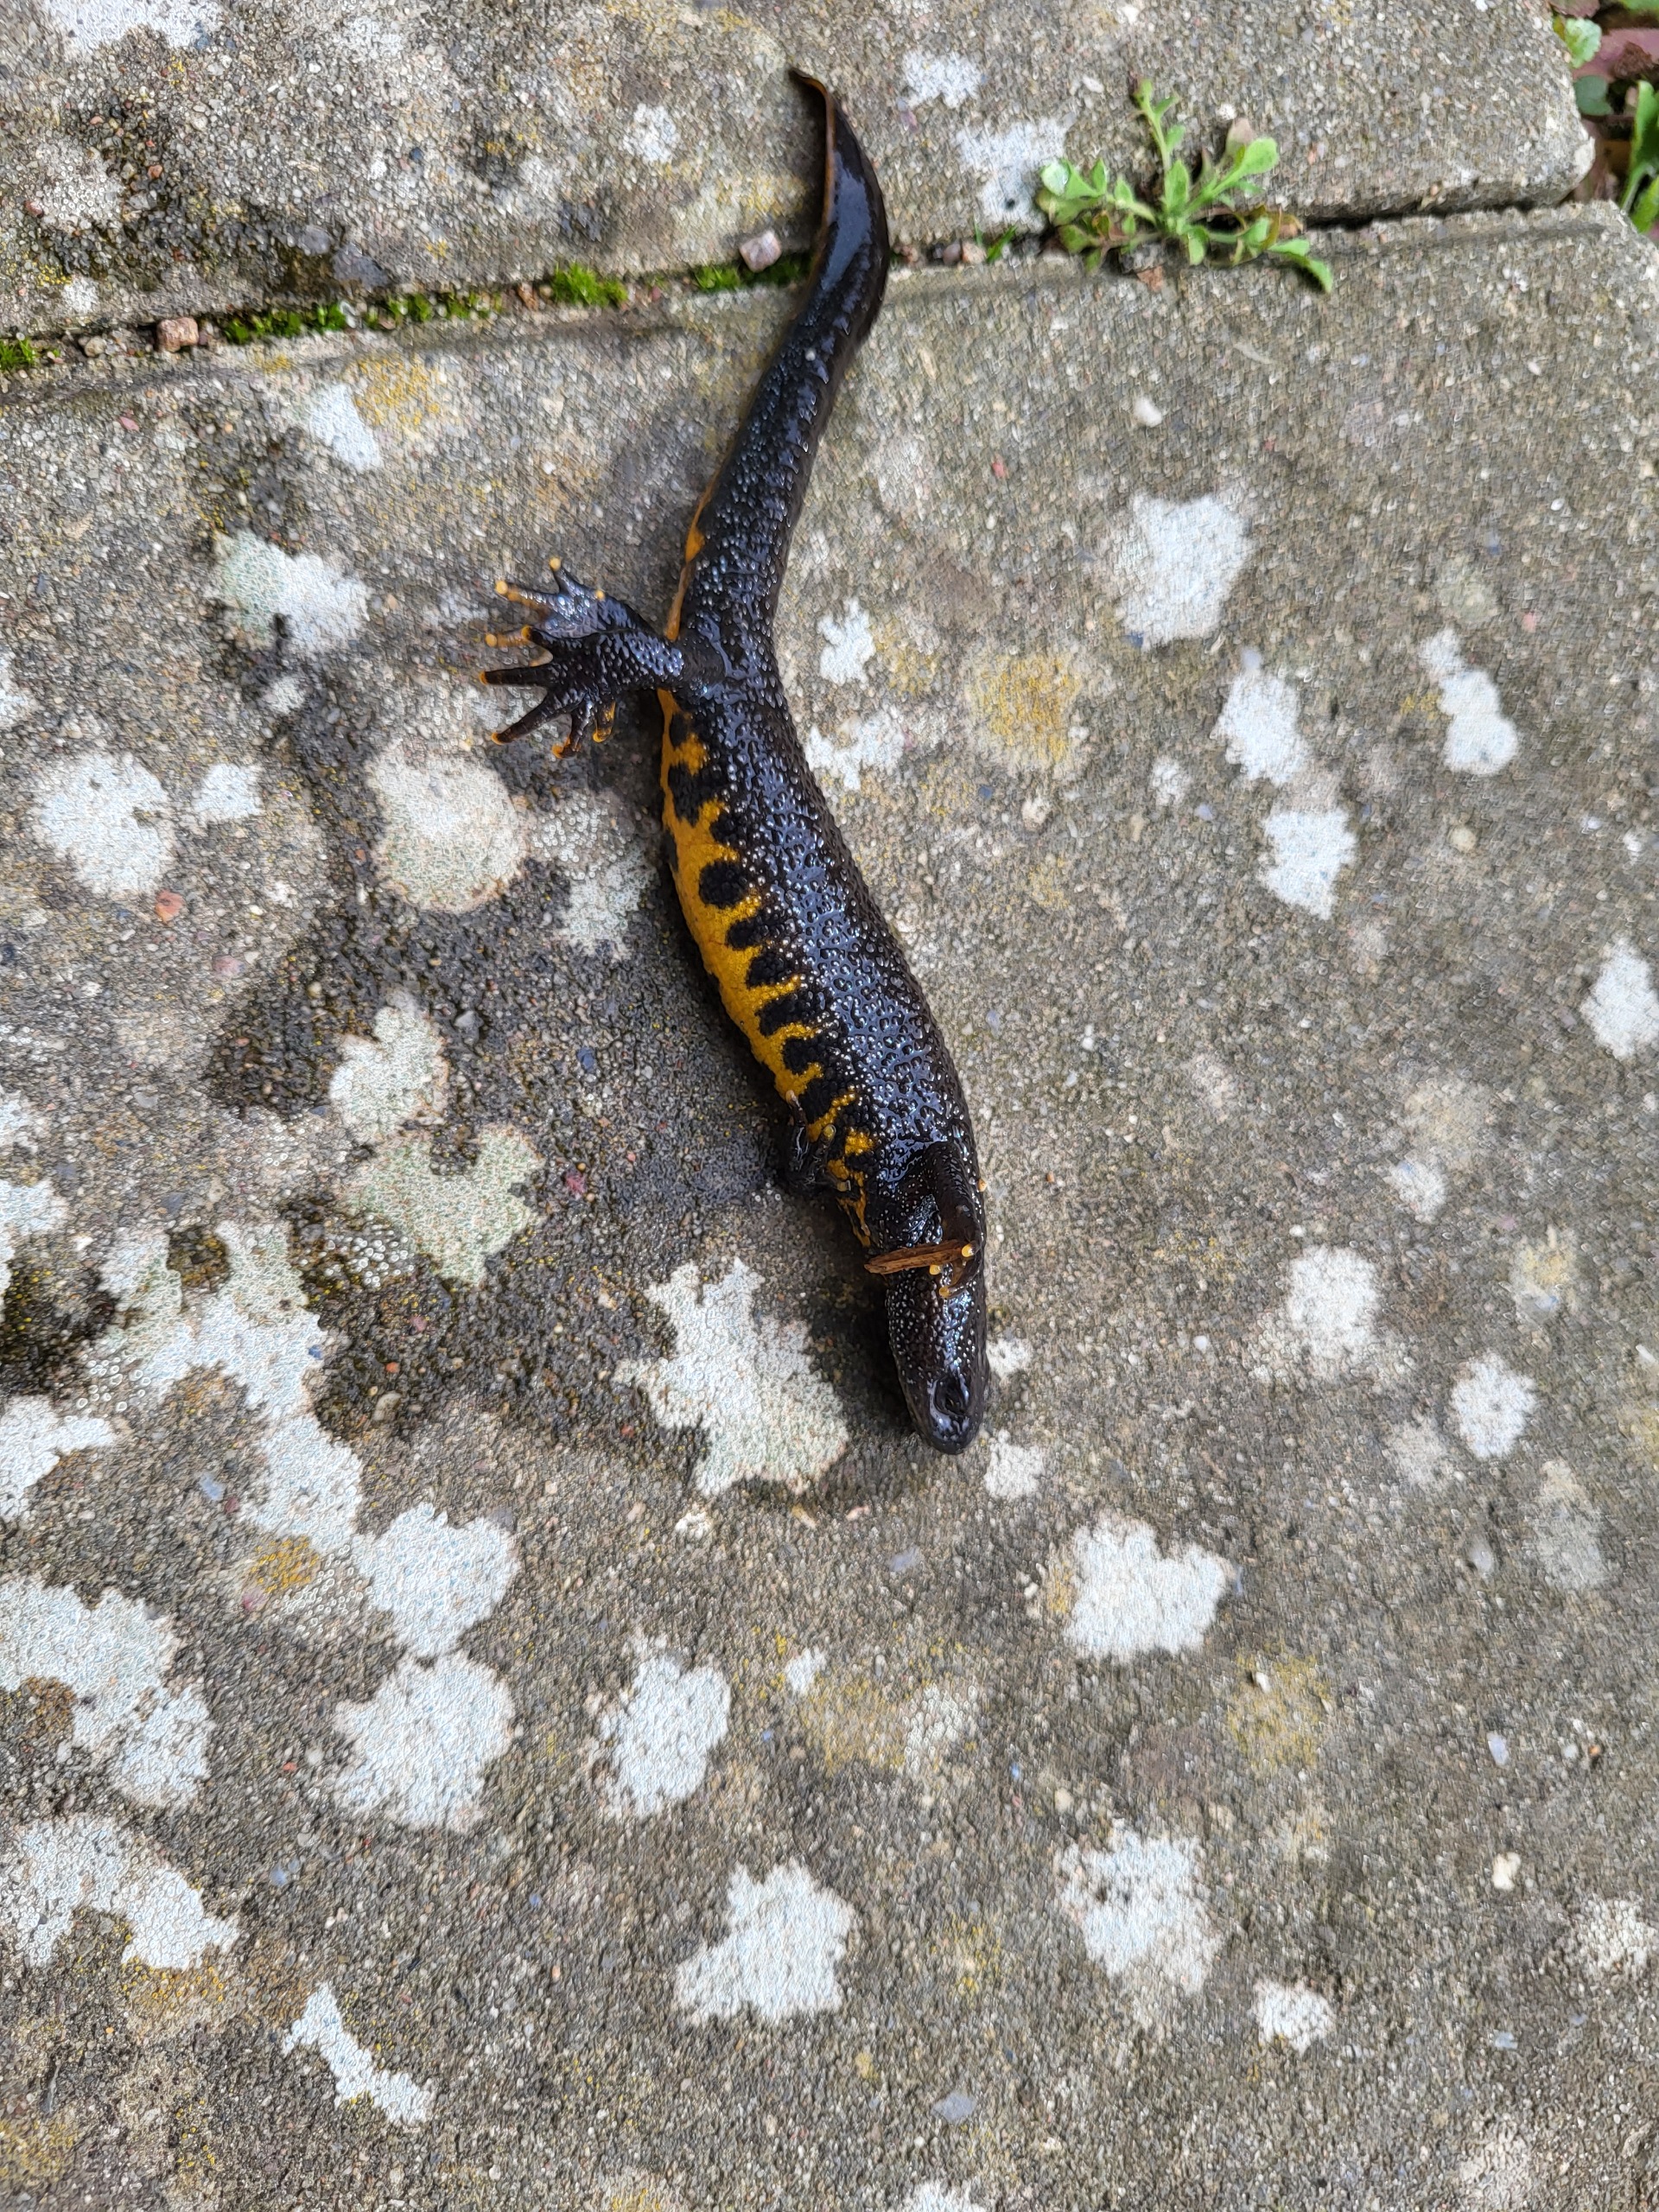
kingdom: Animalia
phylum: Chordata
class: Amphibia
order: Caudata
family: Salamandridae
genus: Triturus
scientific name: Triturus cristatus
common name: Stor vandsalamander
